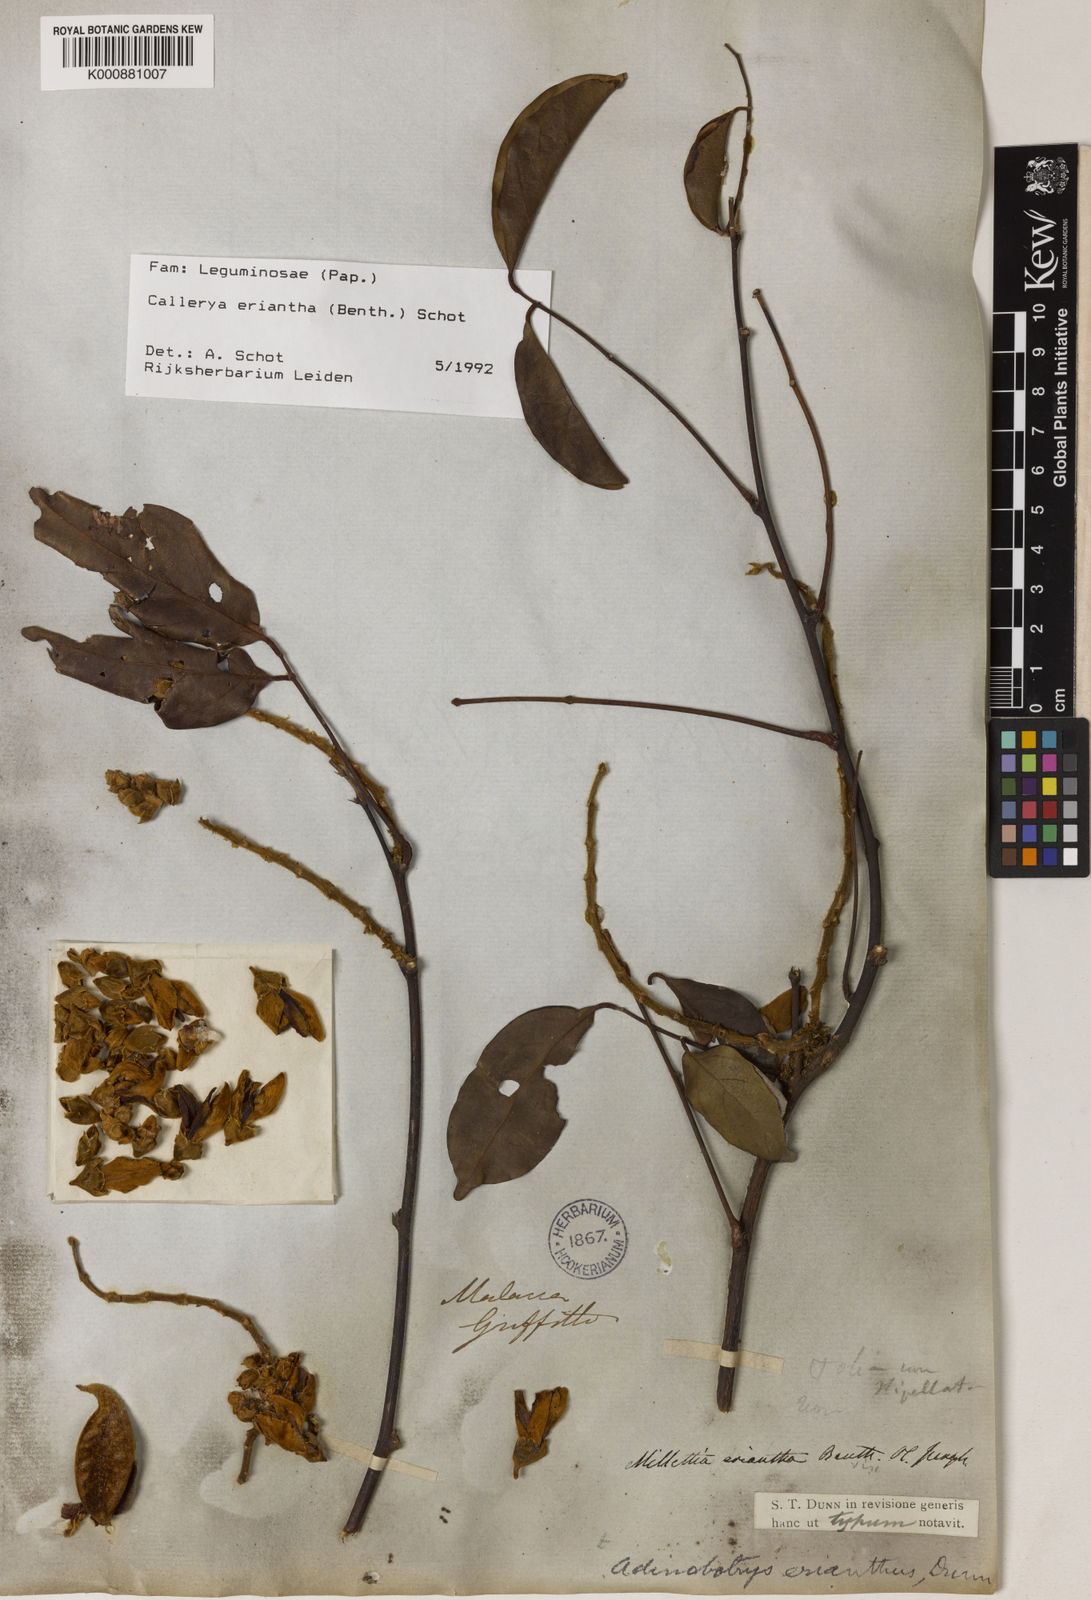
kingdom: Plantae
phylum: Tracheophyta
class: Magnoliopsida
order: Fabales
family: Fabaceae
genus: Whitfordiodendron
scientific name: Whitfordiodendron erianthum
